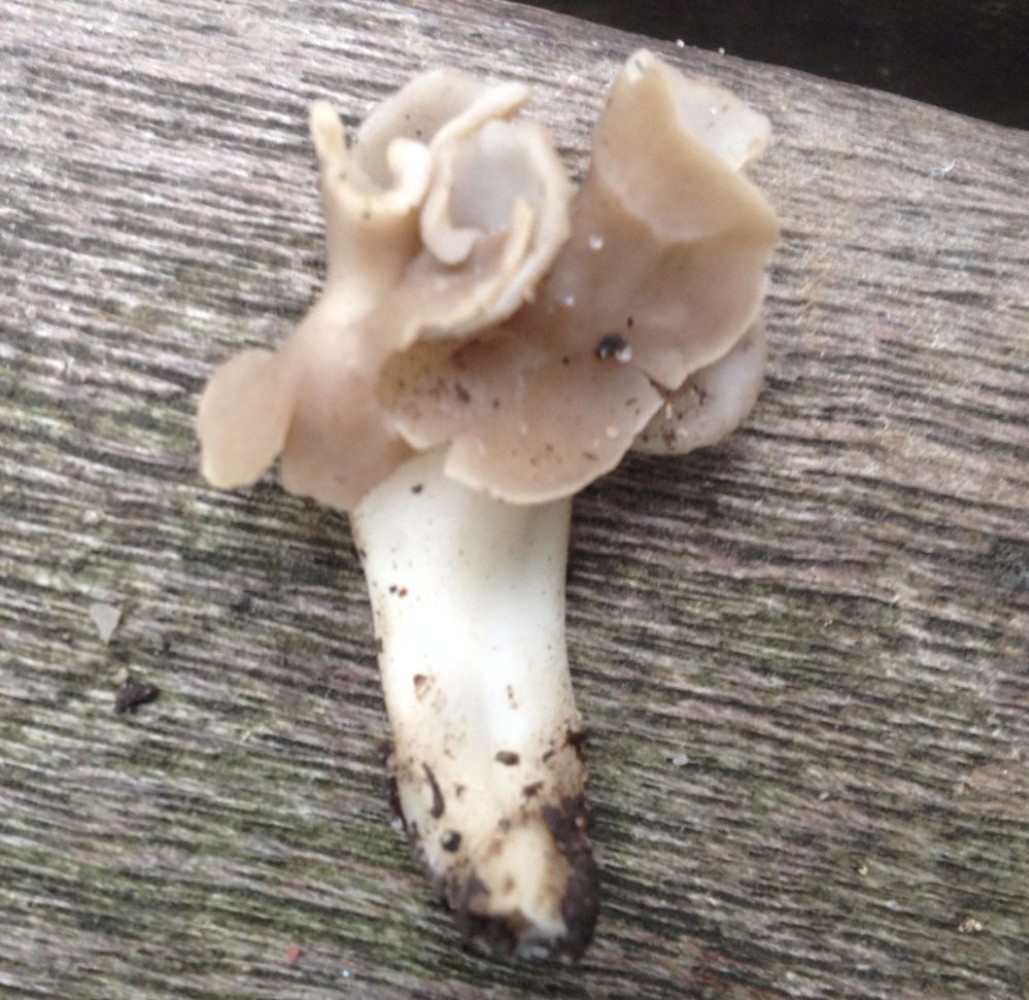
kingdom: Fungi
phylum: Ascomycota
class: Pezizomycetes
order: Pezizales
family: Helvellaceae
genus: Helvella
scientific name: Helvella crispa
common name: kruset foldhat
